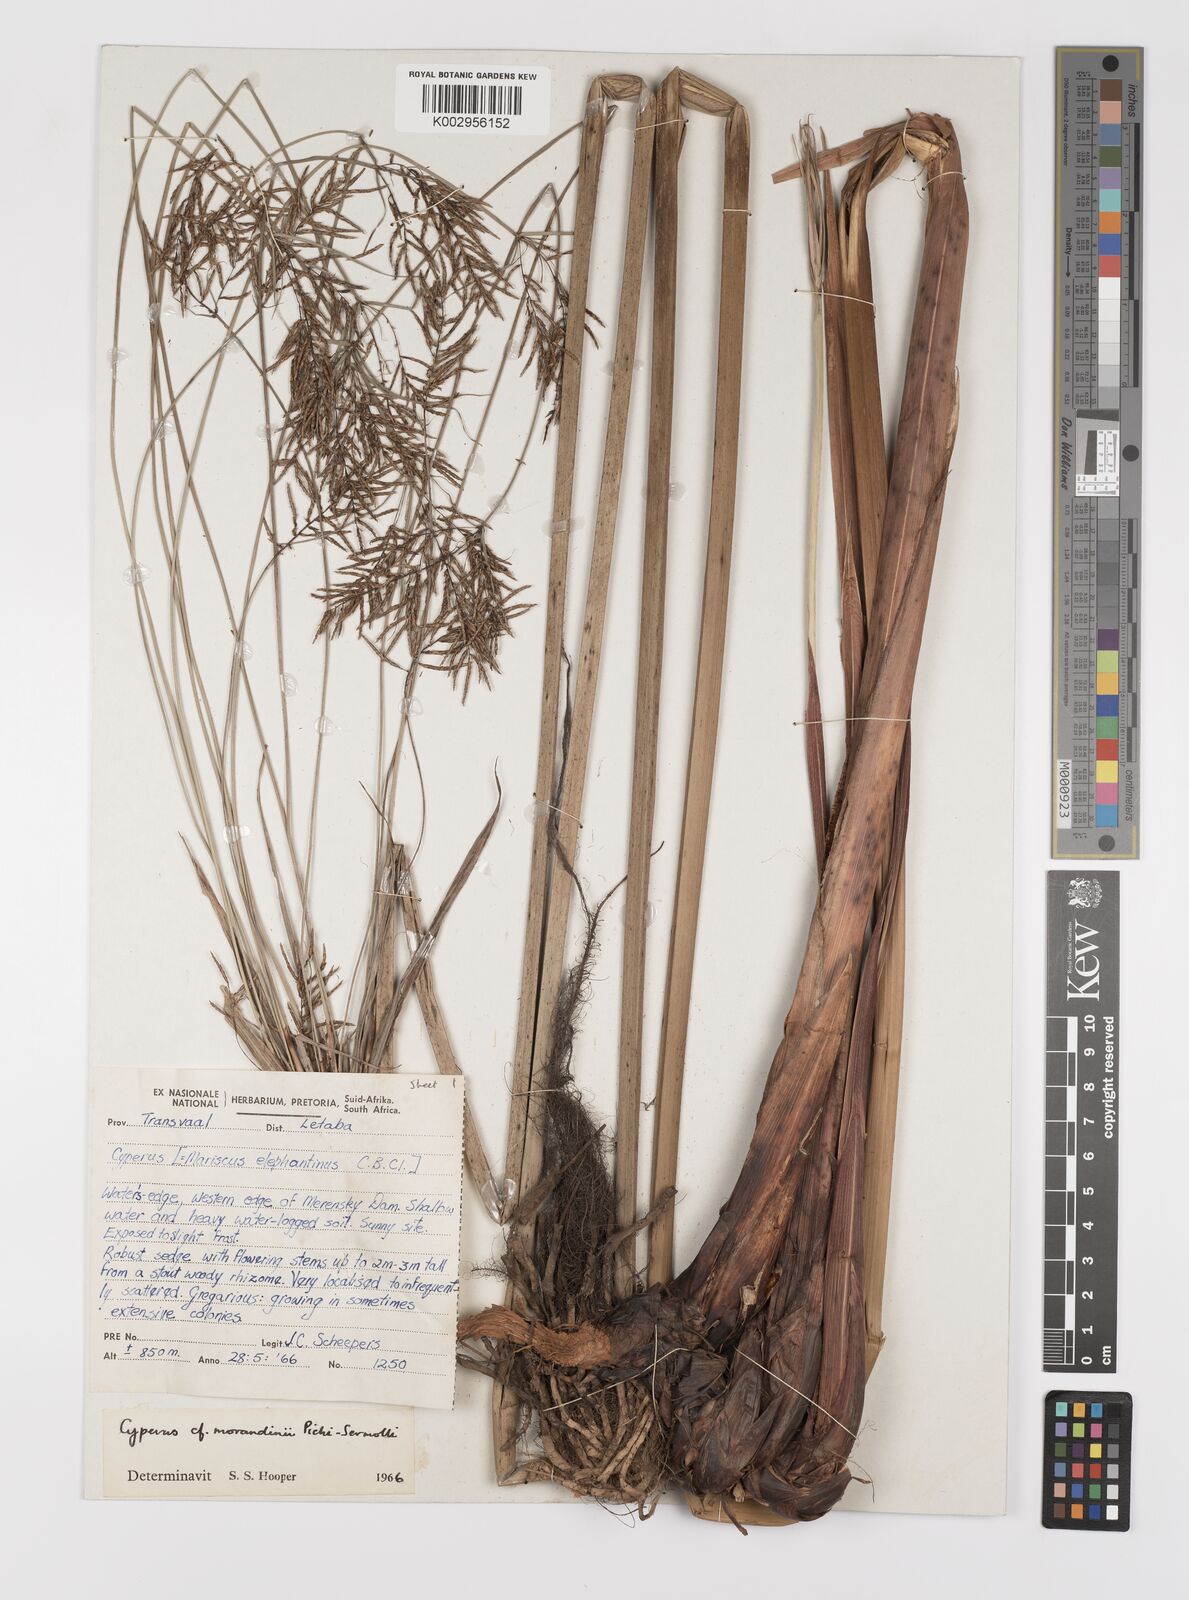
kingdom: Plantae
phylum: Tracheophyta
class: Liliopsida
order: Poales
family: Cyperaceae
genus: Cyperus
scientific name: Cyperus elephantinus
